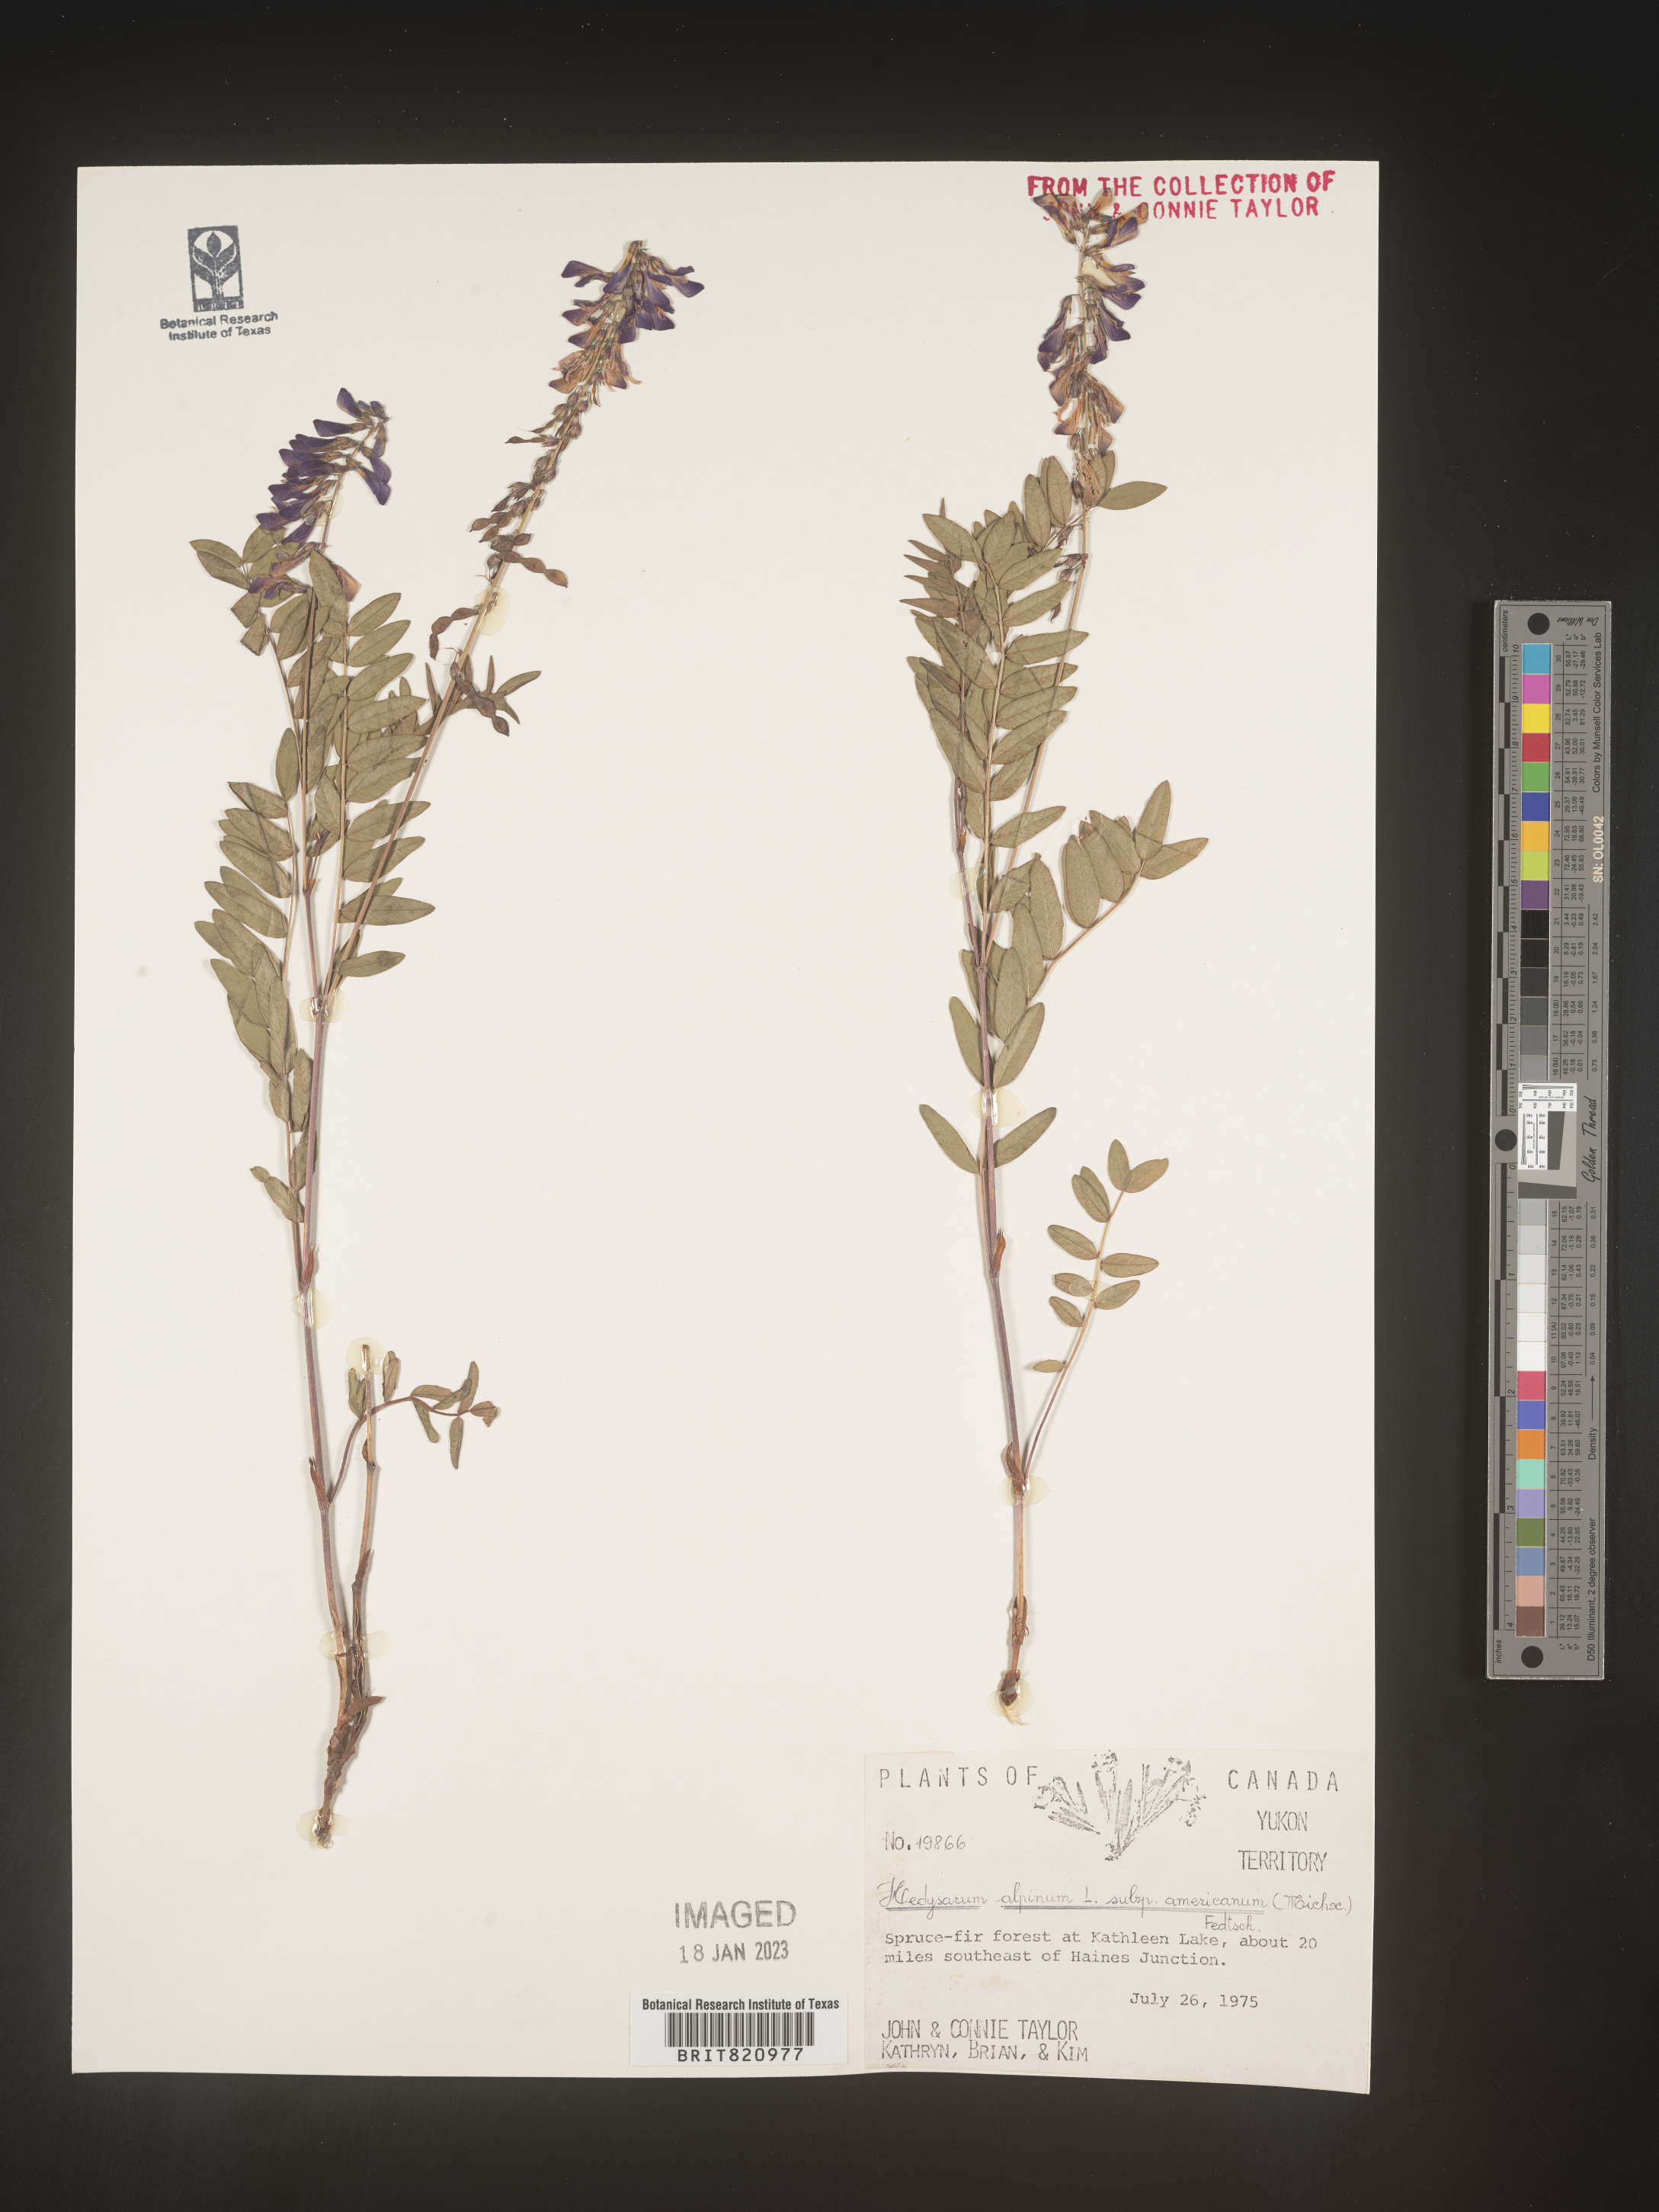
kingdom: Plantae
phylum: Tracheophyta
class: Magnoliopsida
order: Fabales
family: Fabaceae
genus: Hedysarum
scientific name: Hedysarum alpinum
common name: Alpine sweet-vetch
